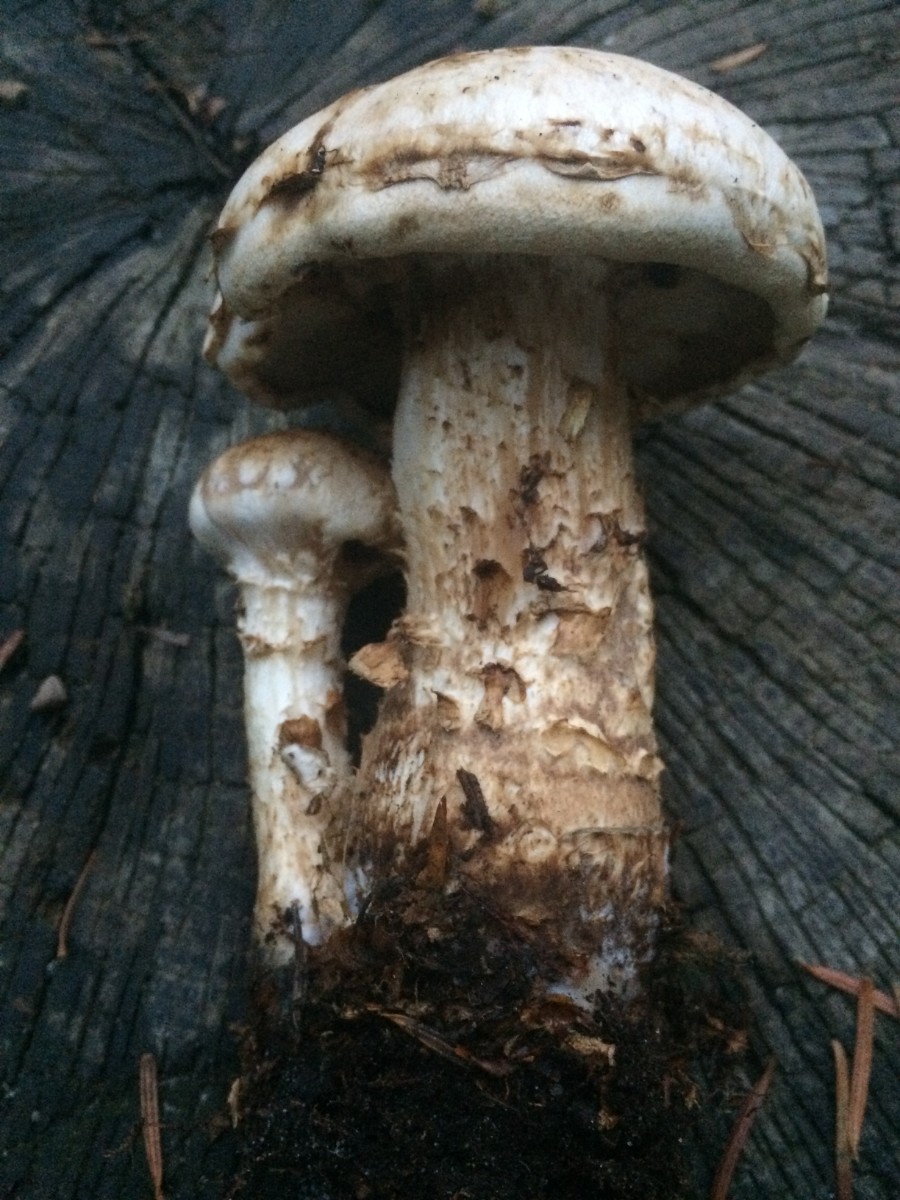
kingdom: Fungi
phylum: Basidiomycota
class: Agaricomycetes
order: Agaricales
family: Hymenogastraceae
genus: Hebeloma
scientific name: Hebeloma radicosum
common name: pælerods-tåreblad
